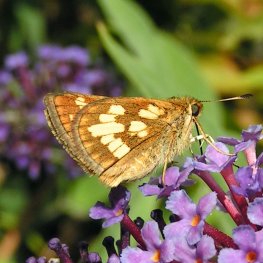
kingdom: Animalia
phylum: Arthropoda
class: Insecta
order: Lepidoptera
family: Hesperiidae
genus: Polites
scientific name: Polites coras
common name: Peck's Skipper
